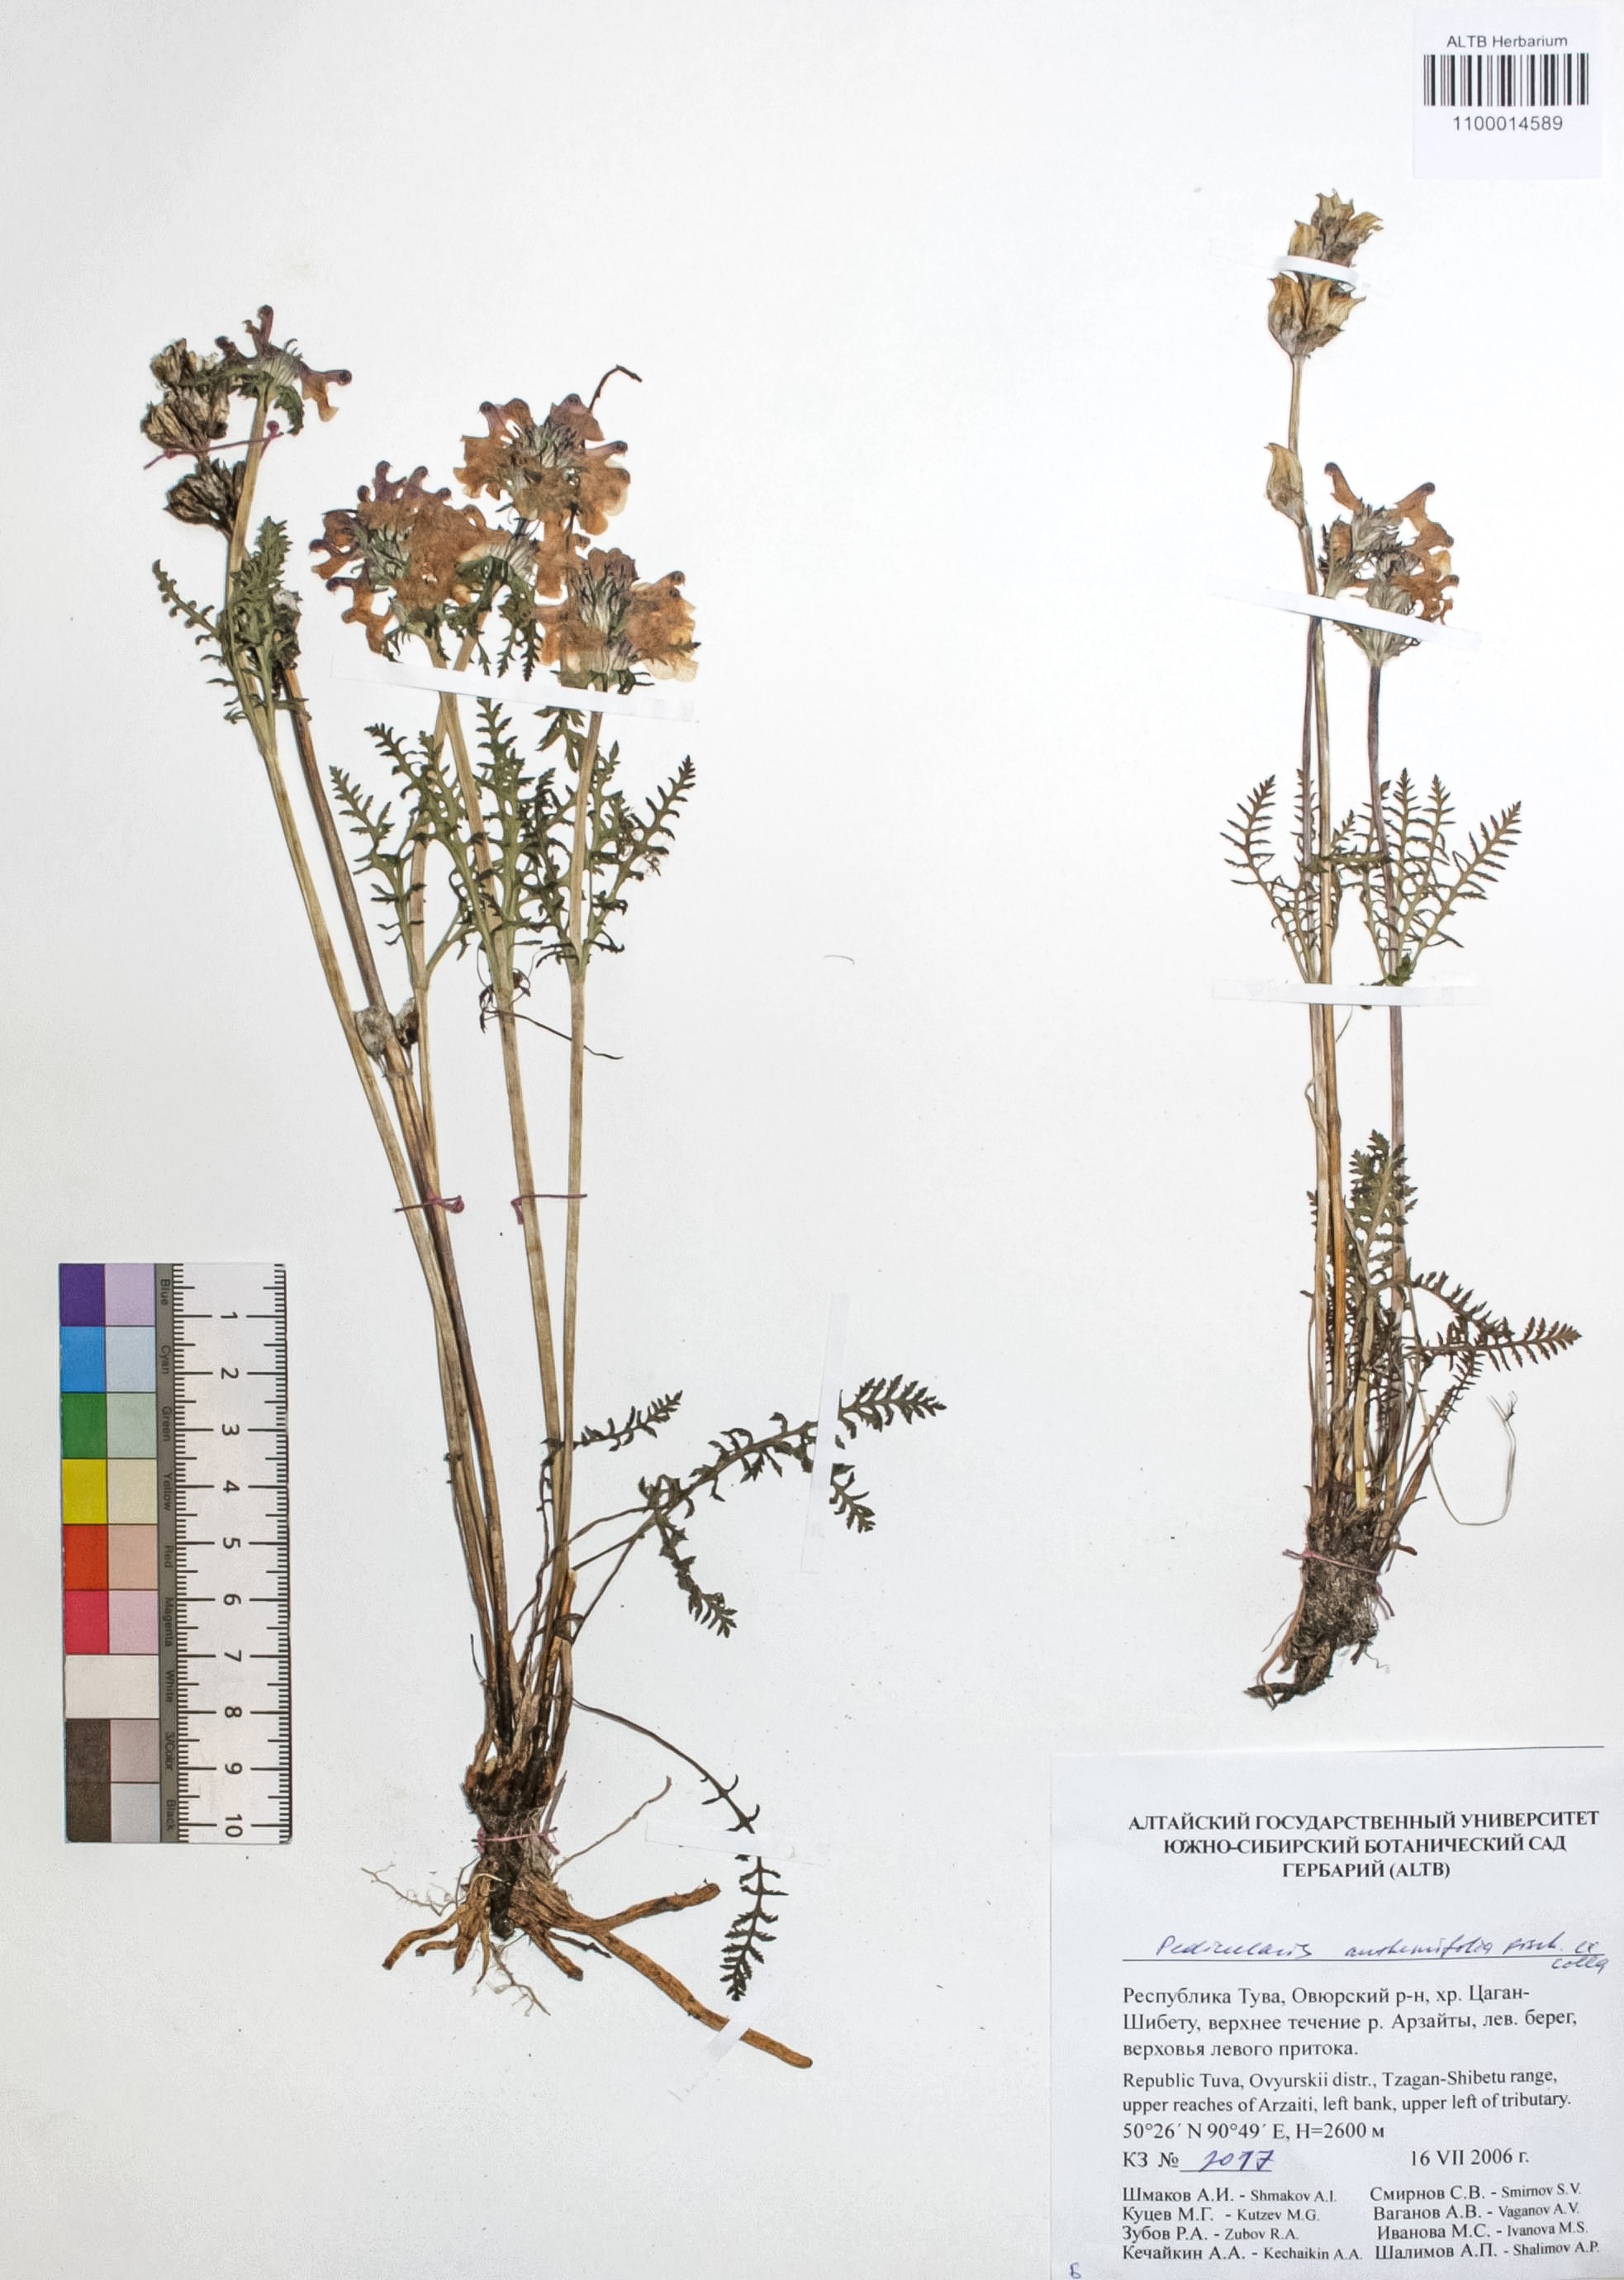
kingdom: Plantae
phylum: Tracheophyta
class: Magnoliopsida
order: Lamiales
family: Orobanchaceae
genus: Pedicularis
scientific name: Pedicularis achilleifolia
